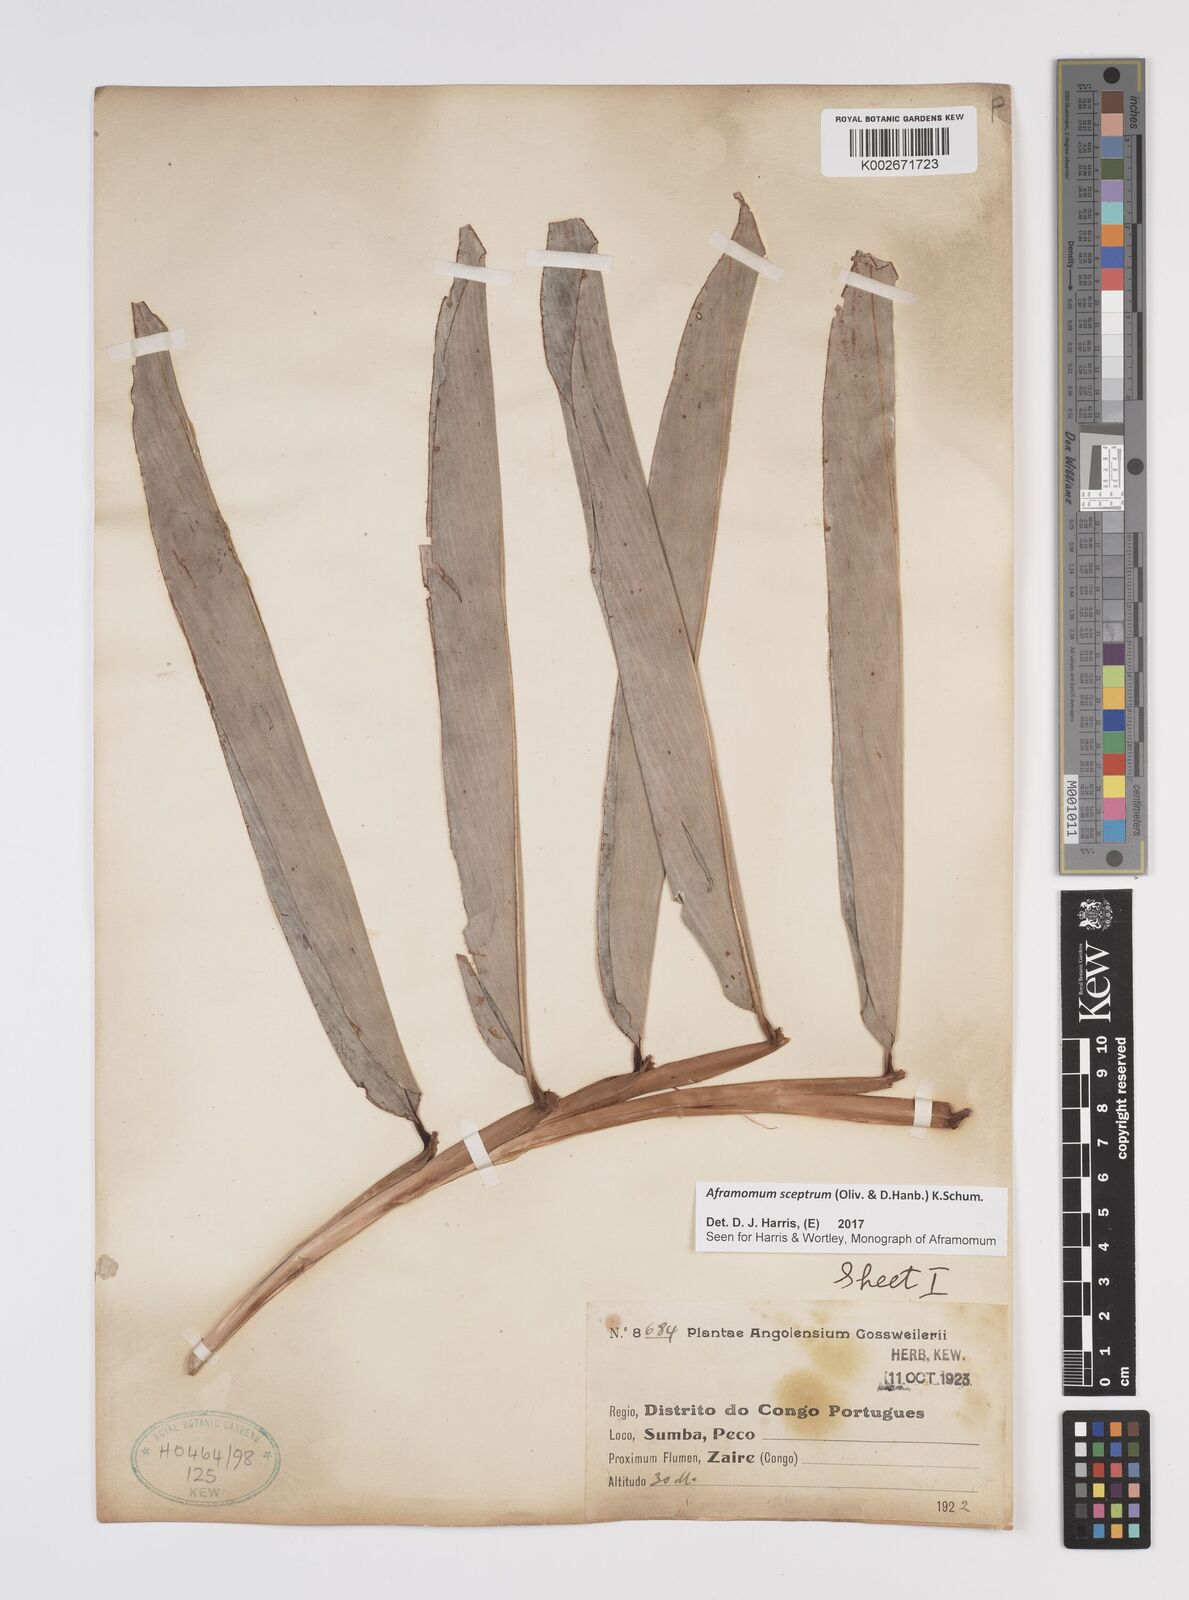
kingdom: Plantae
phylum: Tracheophyta
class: Liliopsida
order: Zingiberales
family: Zingiberaceae
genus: Aframomum
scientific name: Aframomum cereum
